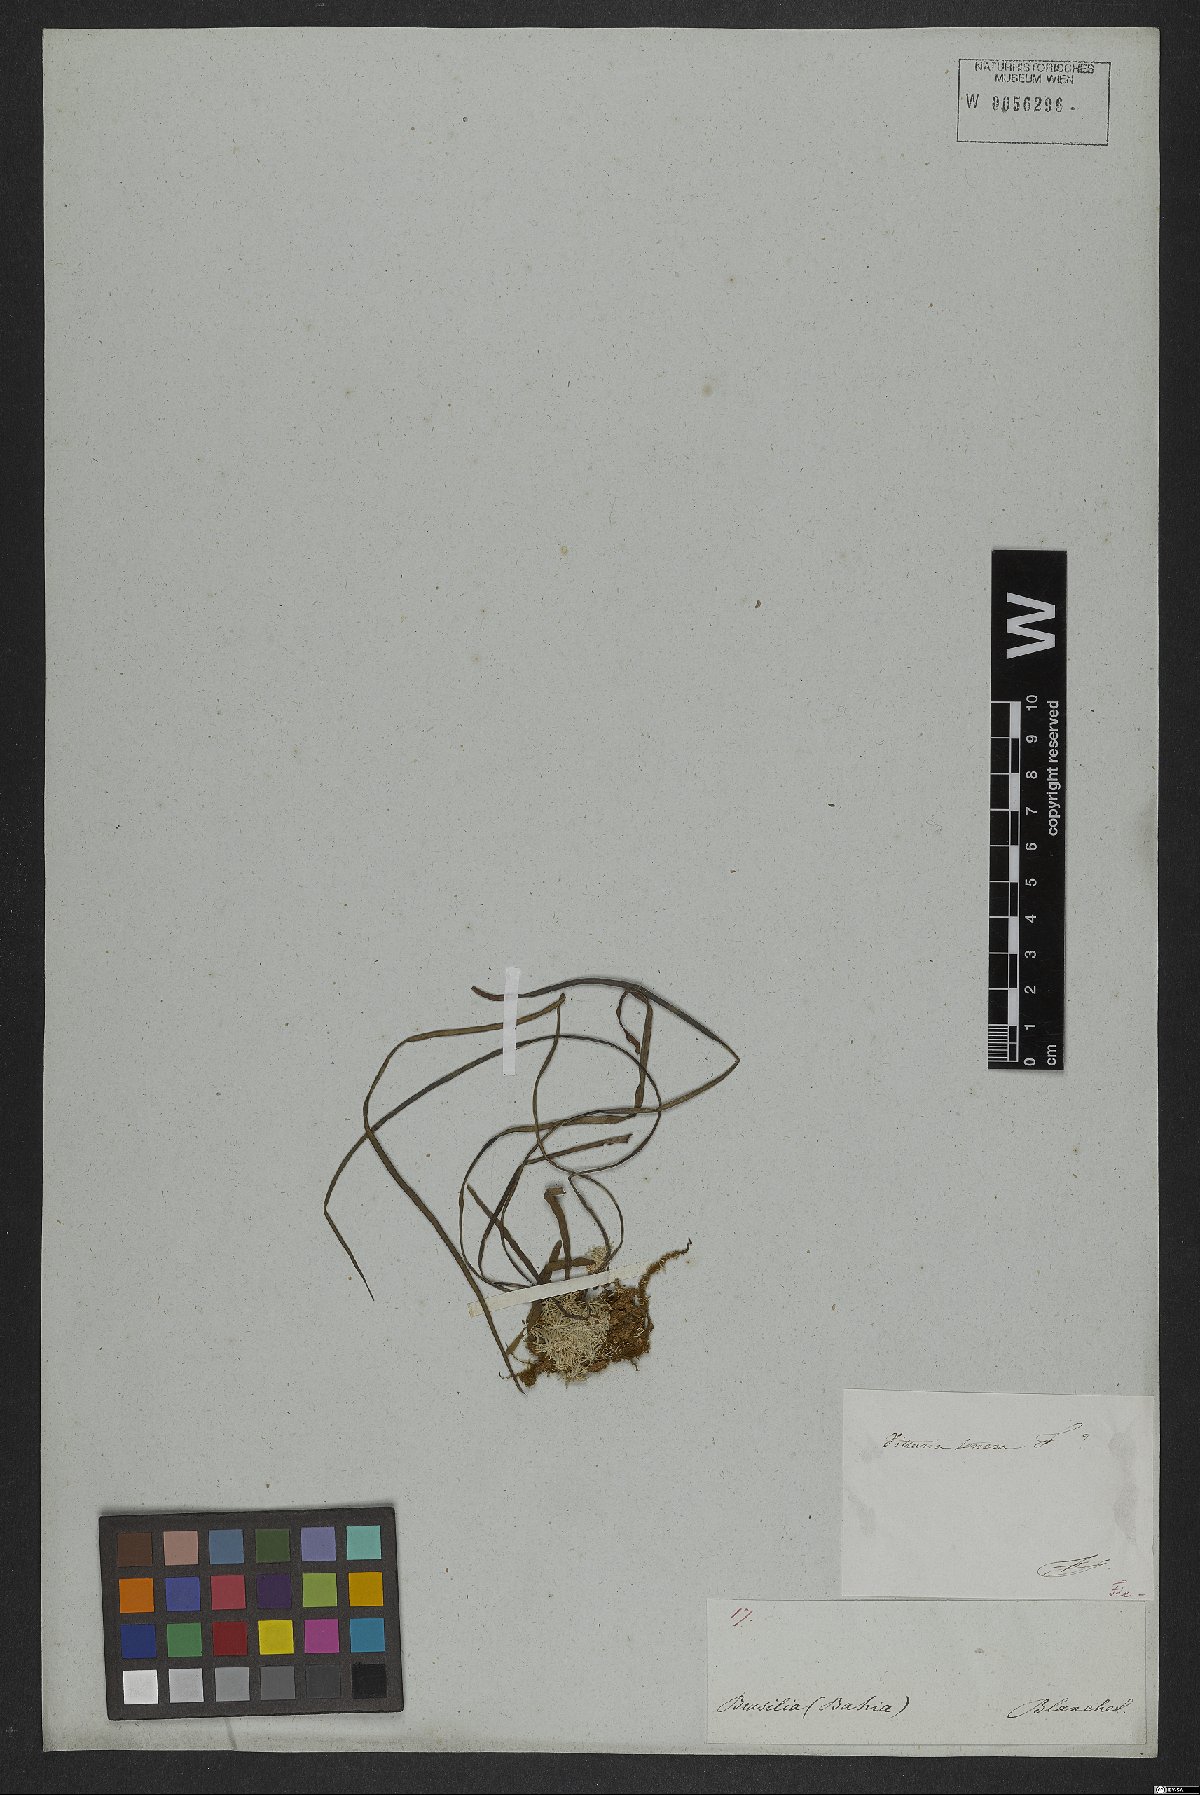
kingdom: Plantae
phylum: Tracheophyta
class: Polypodiopsida
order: Polypodiales
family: Pteridaceae
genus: Vittaria
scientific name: Vittaria isoetifolia
